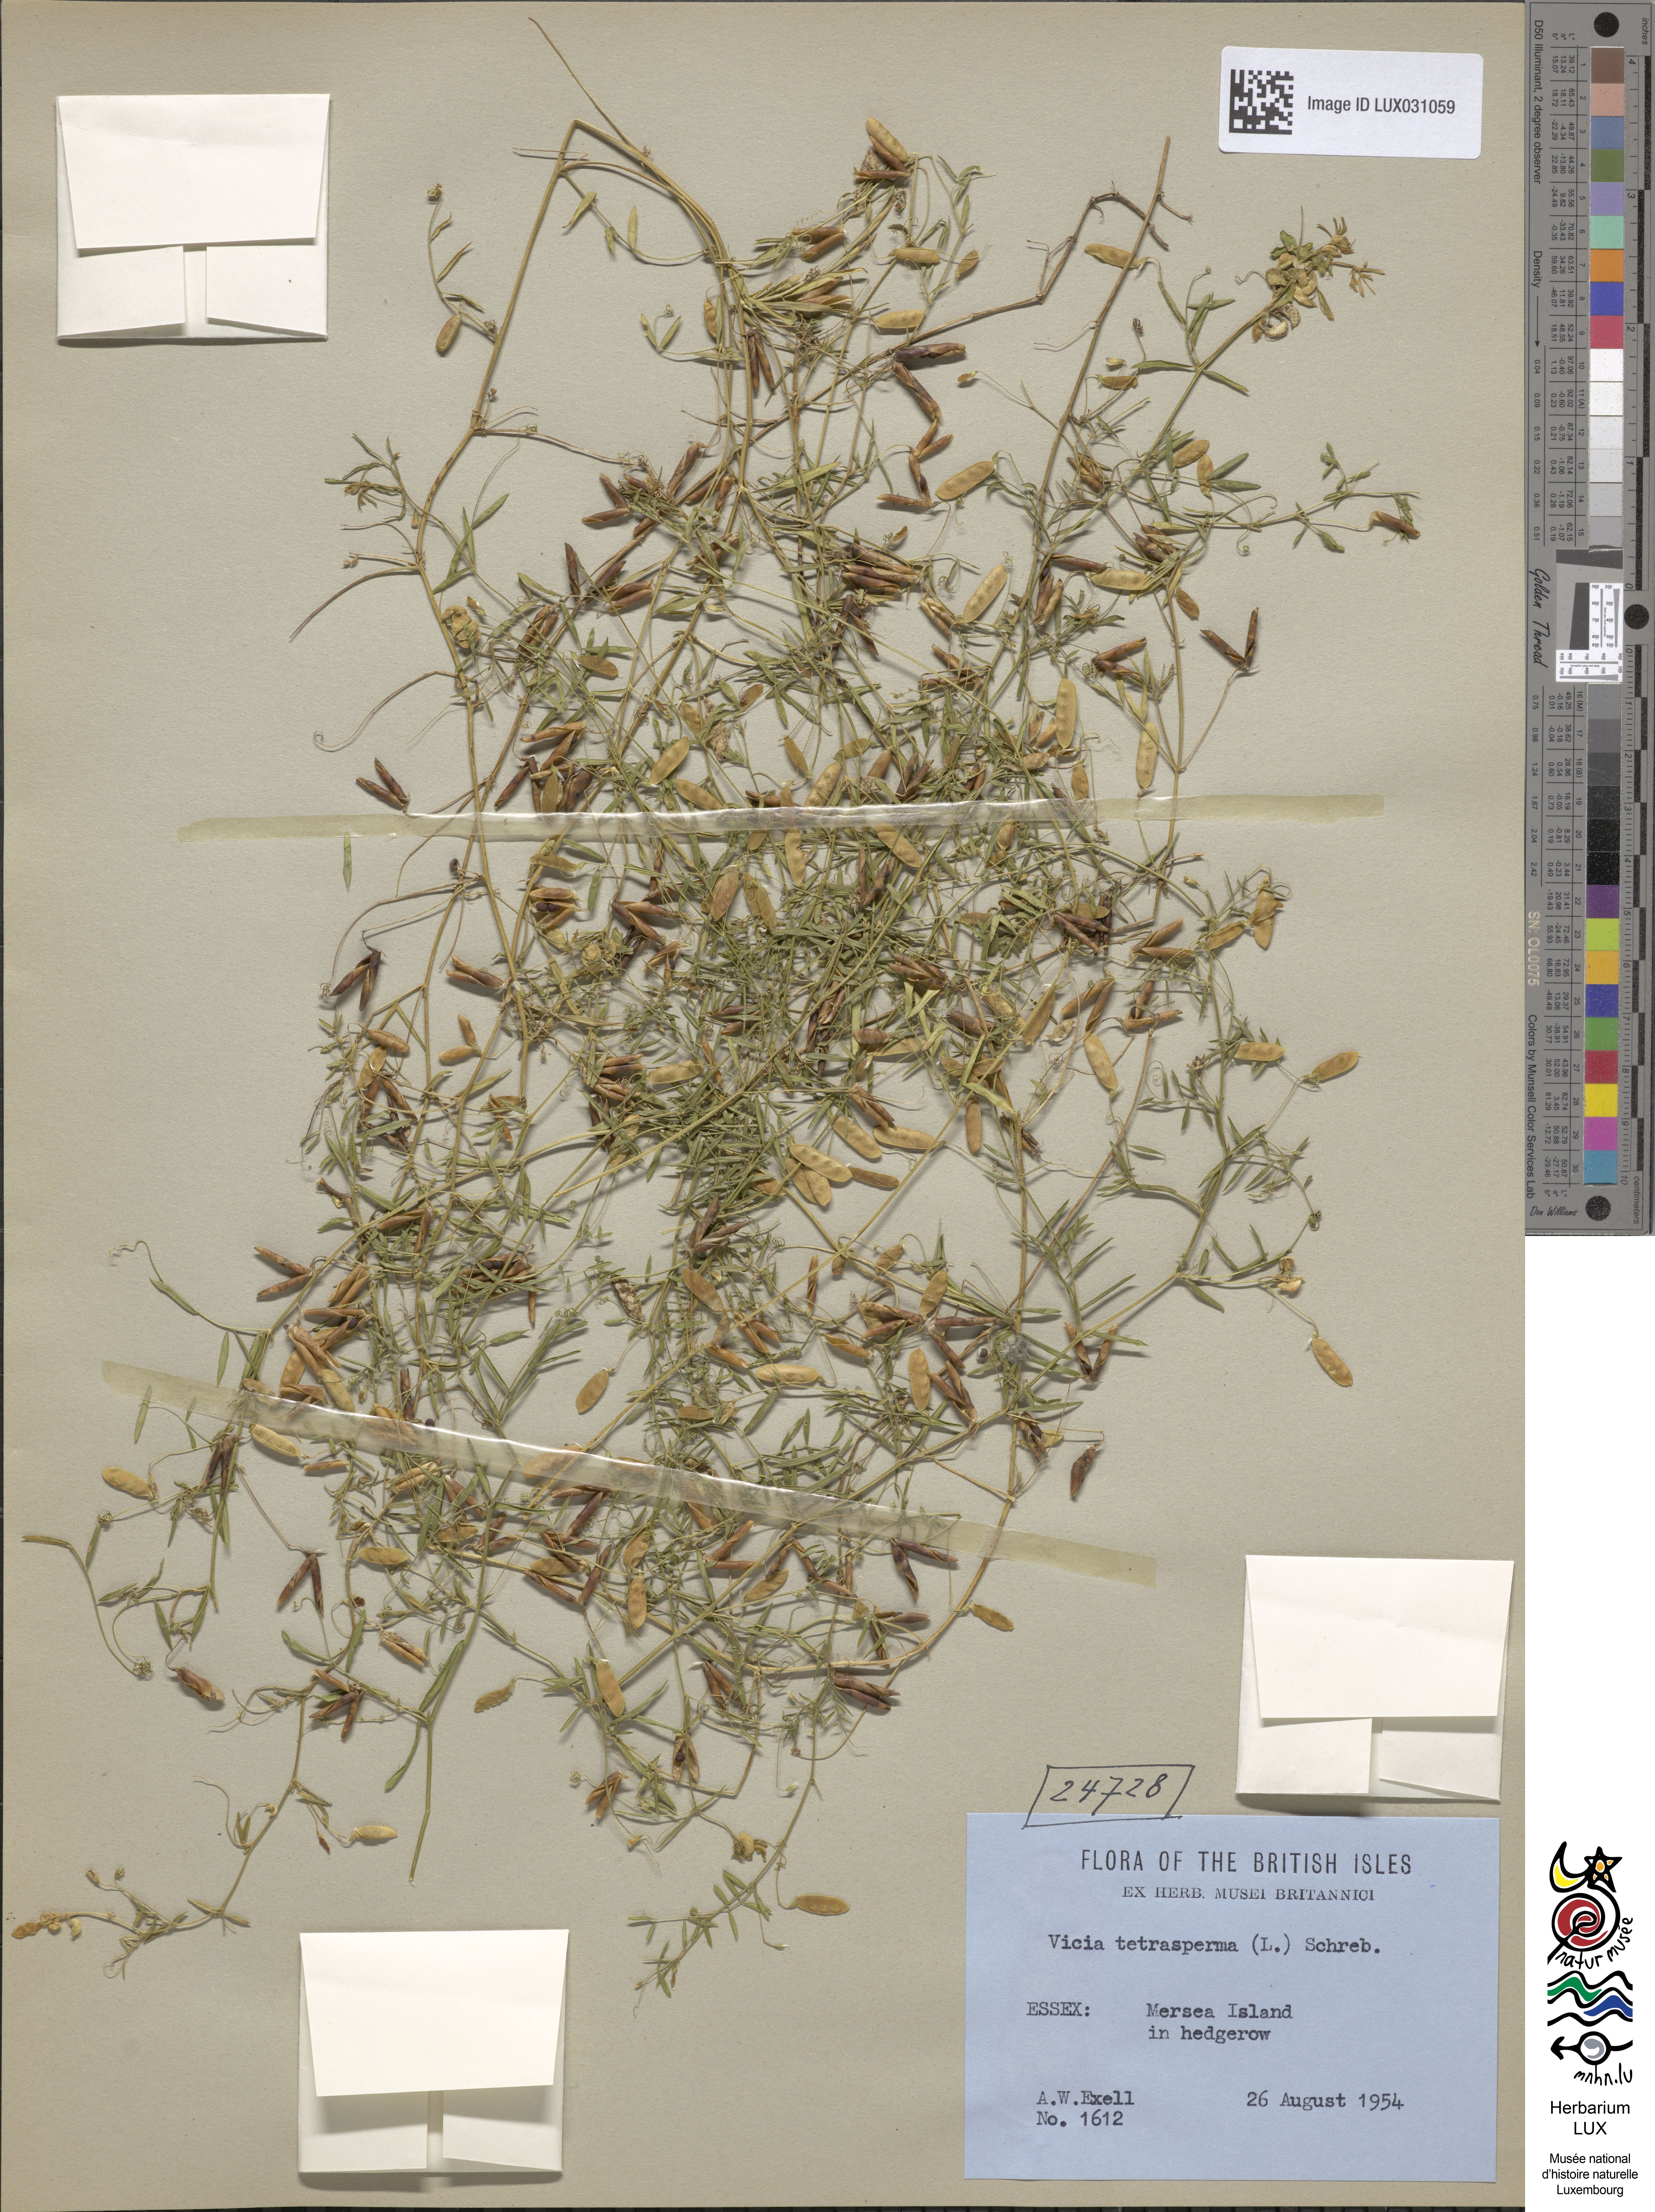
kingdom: Plantae
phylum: Tracheophyta
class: Magnoliopsida
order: Fabales
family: Fabaceae
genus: Vicia
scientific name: Vicia tetrasperma
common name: Smooth tare
